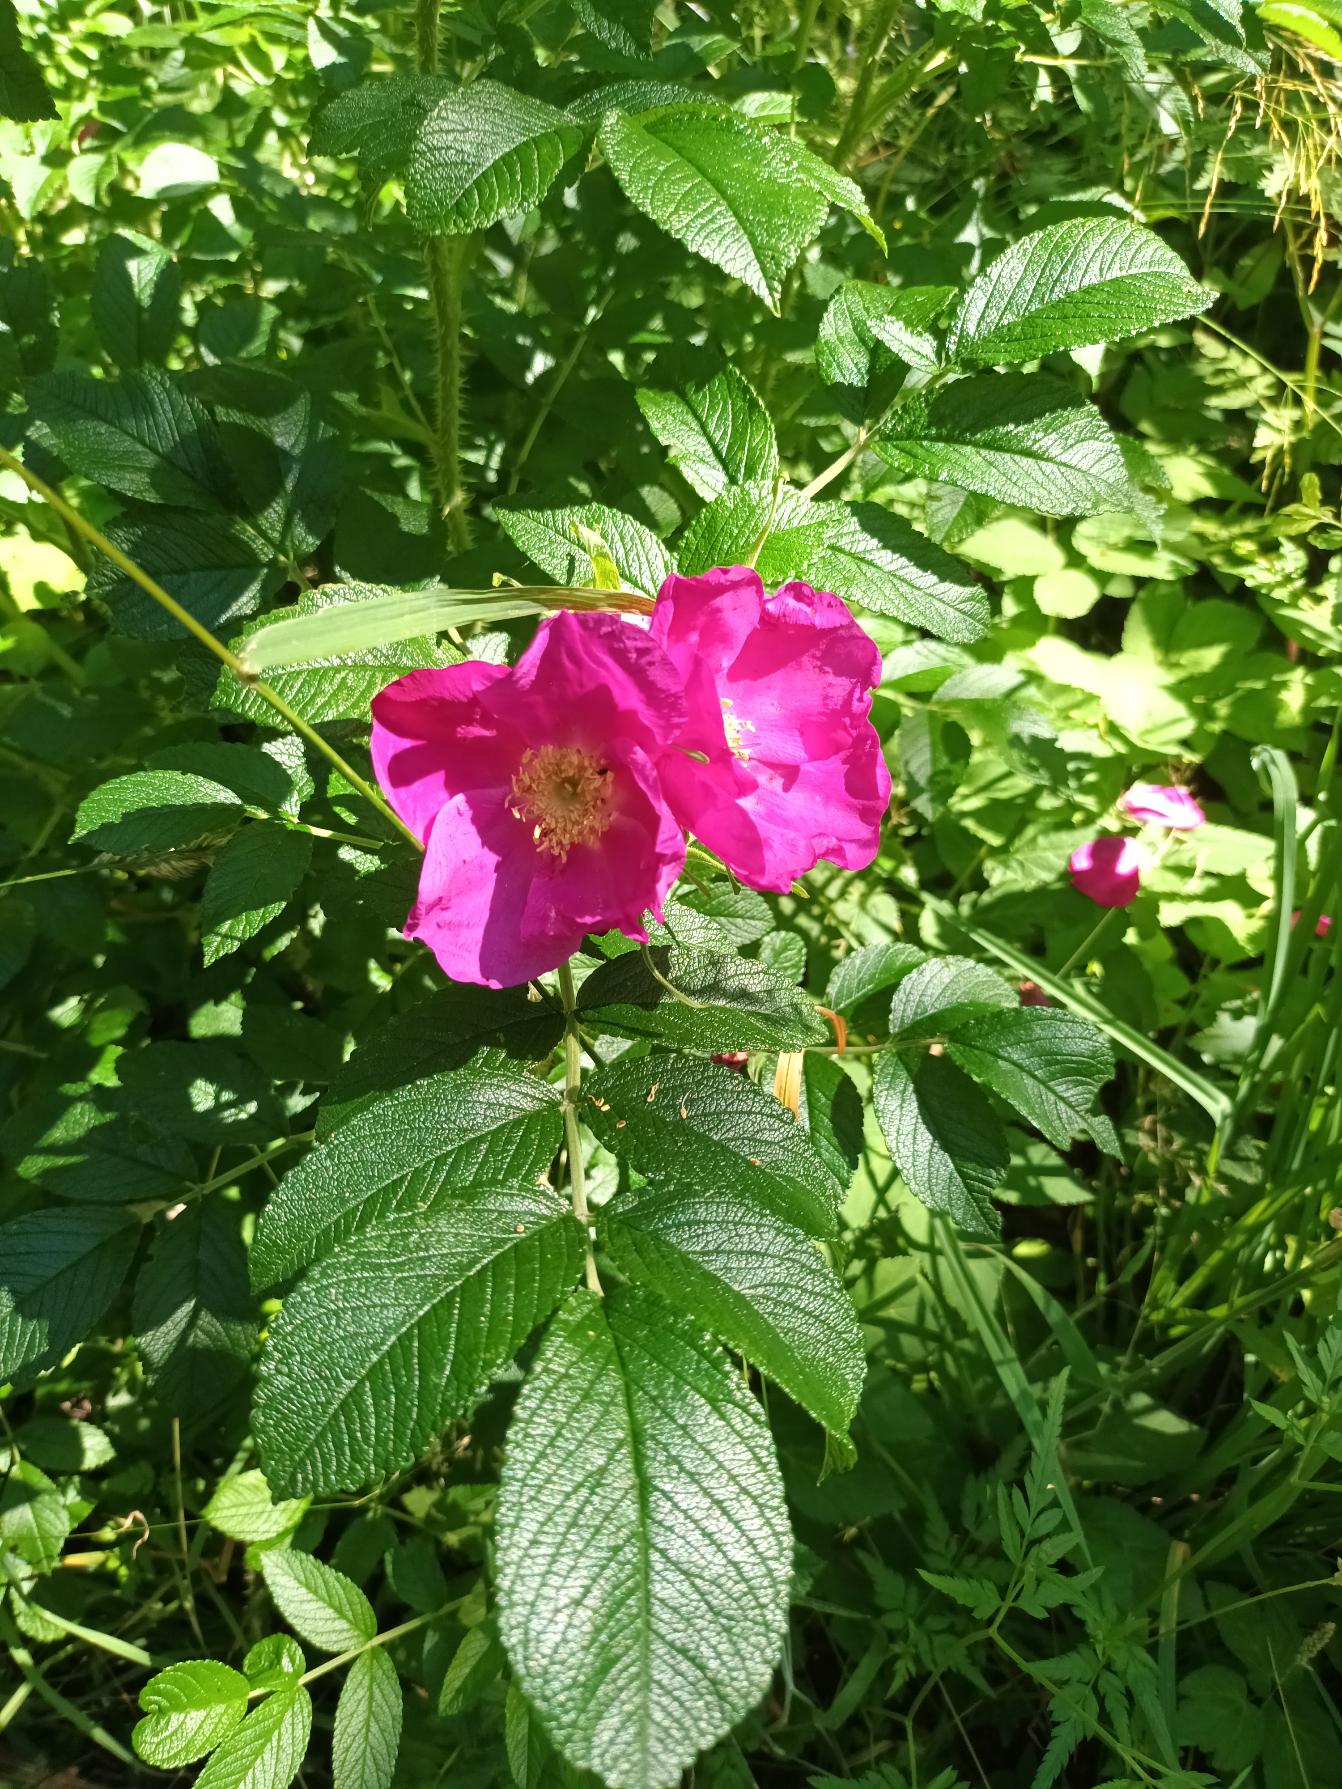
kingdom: Plantae
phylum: Tracheophyta
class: Magnoliopsida
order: Rosales
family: Rosaceae
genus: Rosa
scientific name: Rosa rugosa
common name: Rynket rose
